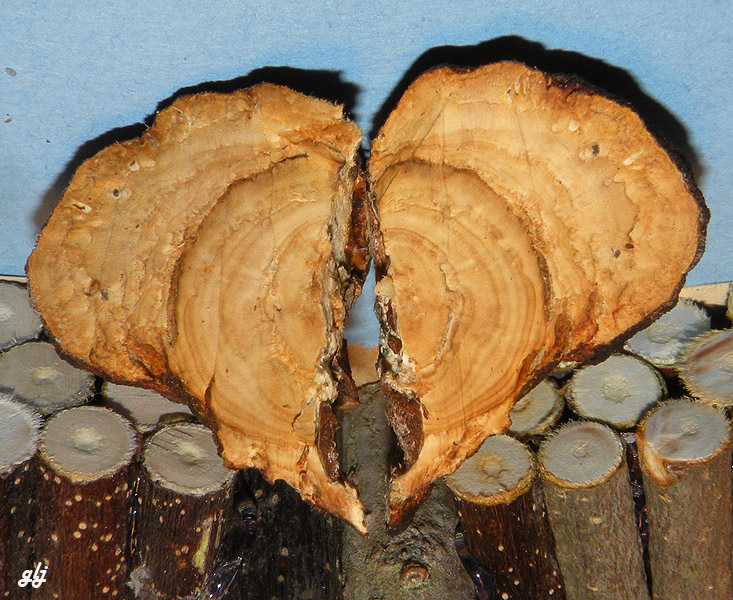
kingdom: Fungi
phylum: Basidiomycota
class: Agaricomycetes
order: Polyporales
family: Polyporaceae
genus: Daedaleopsis
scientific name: Daedaleopsis confragosa
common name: rødmende læderporesvamp
